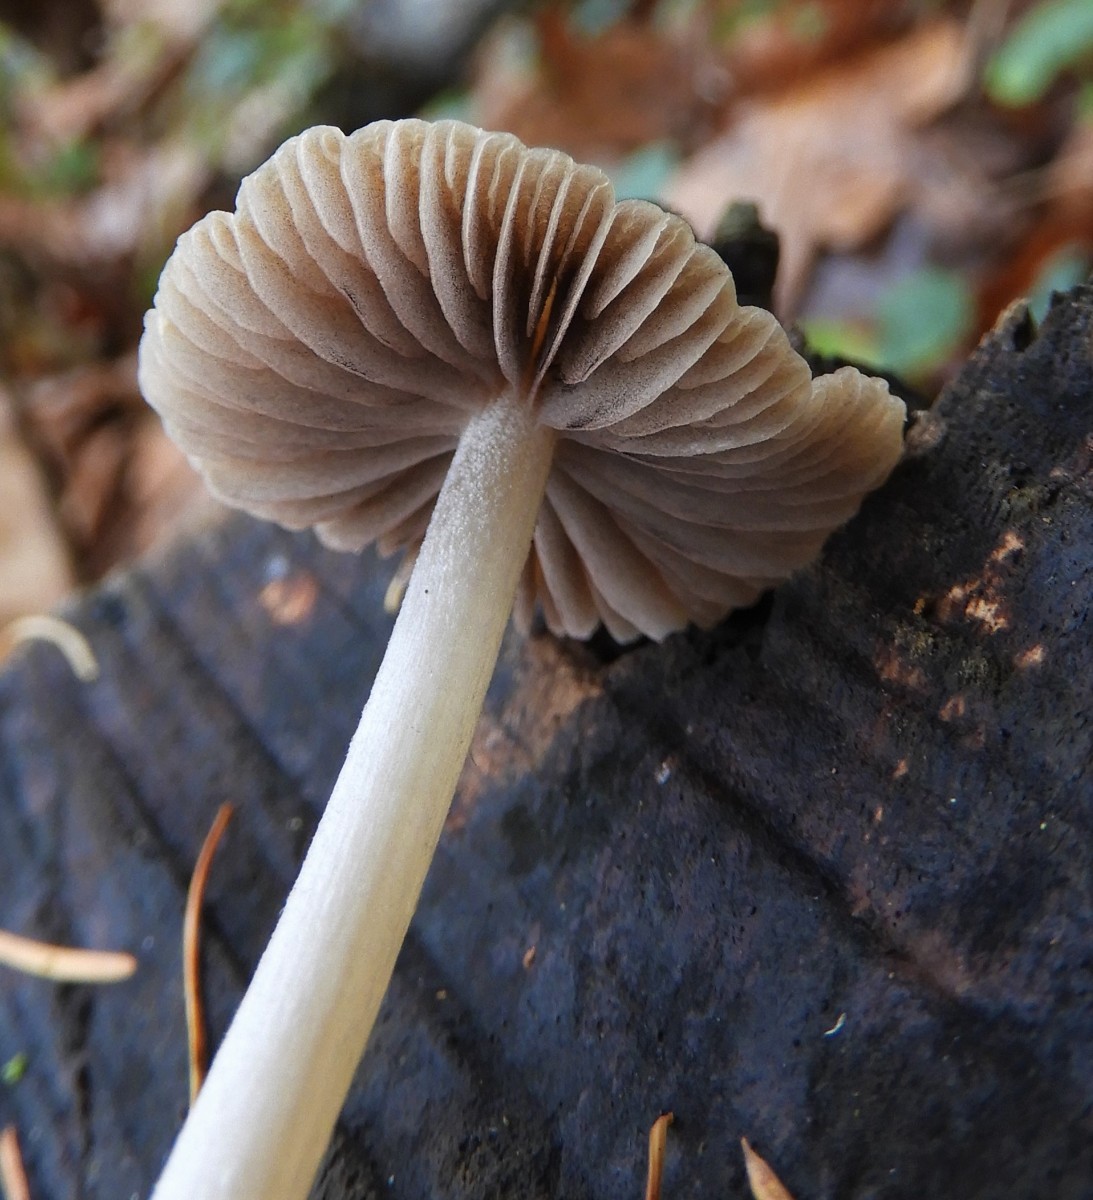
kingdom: Fungi
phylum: Basidiomycota
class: Agaricomycetes
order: Agaricales
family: Psathyrellaceae
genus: Psathyrella
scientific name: Psathyrella
